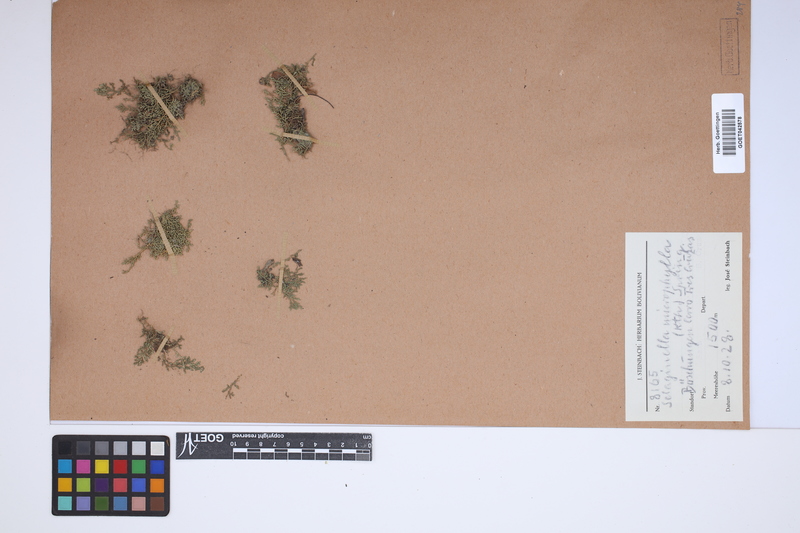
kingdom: Plantae
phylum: Tracheophyta
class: Lycopodiopsida
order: Selaginellales
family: Selaginellaceae
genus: Selaginella
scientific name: Selaginella microphylla
